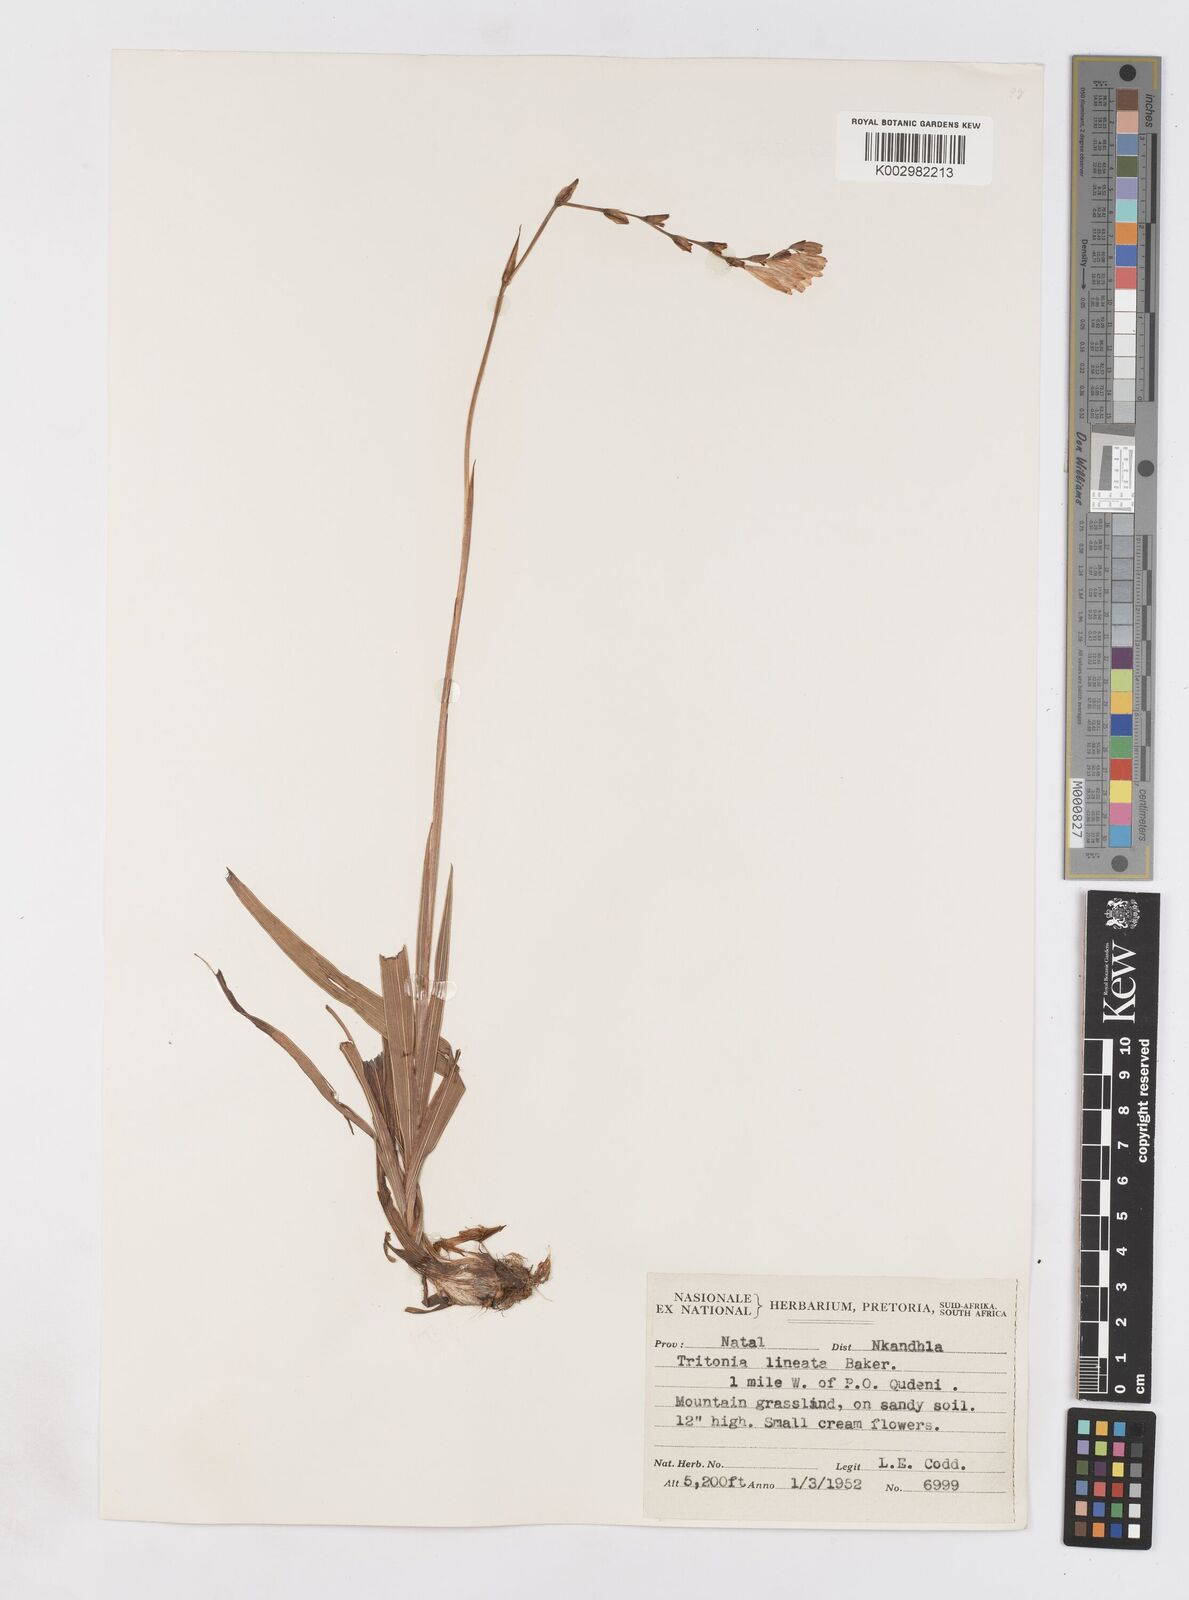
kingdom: Plantae
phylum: Tracheophyta
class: Liliopsida
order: Asparagales
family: Iridaceae
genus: Tritonia
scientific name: Tritonia gladiolaris
